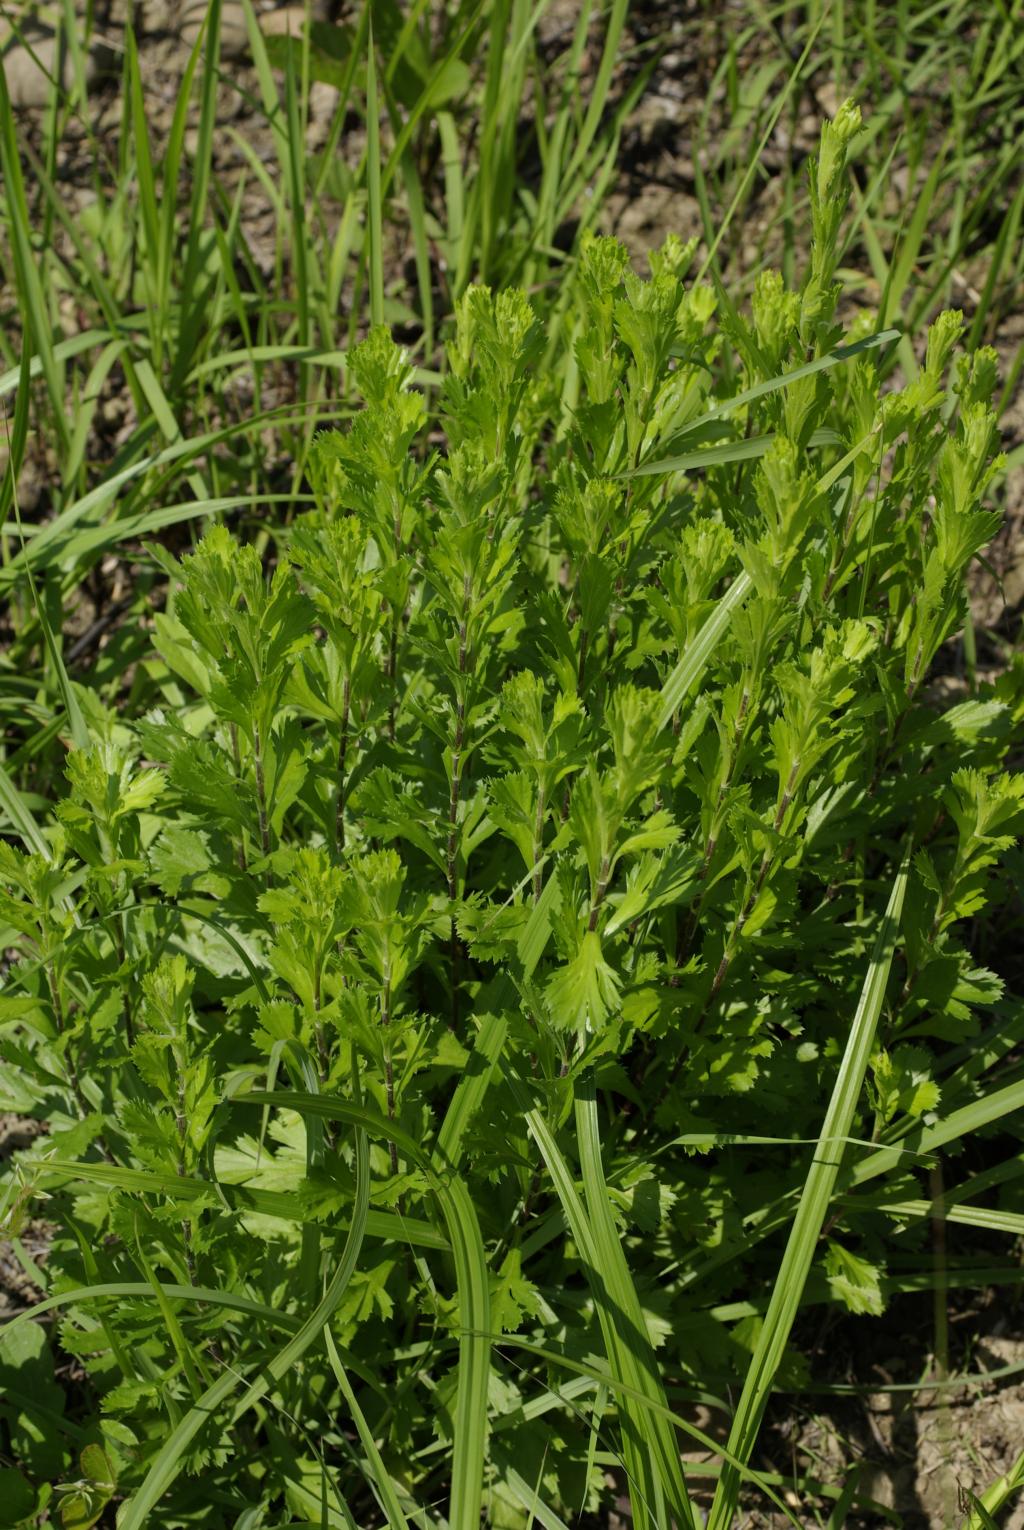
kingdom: Plantae
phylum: Tracheophyta
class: Magnoliopsida
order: Asterales
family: Asteraceae
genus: Artemisia
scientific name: Artemisia japonica
